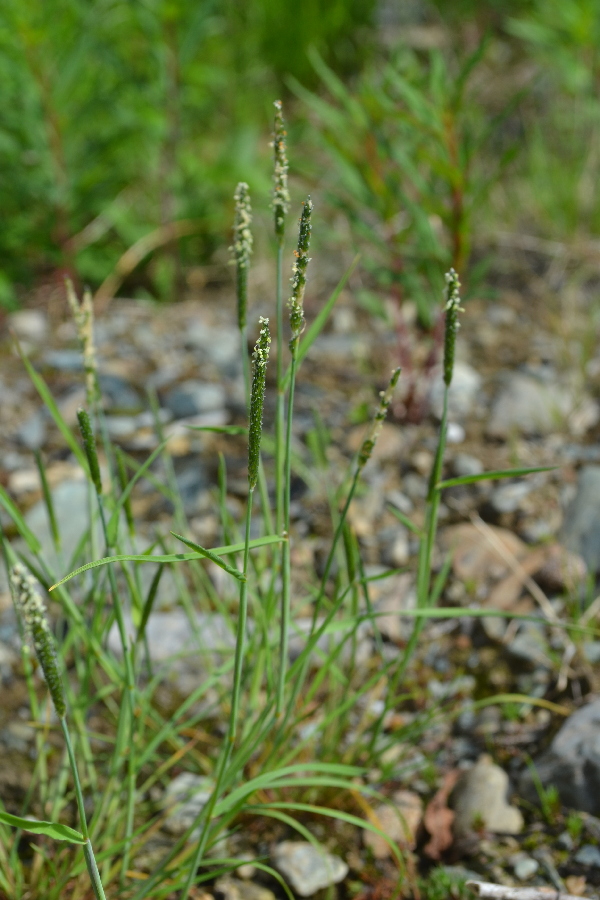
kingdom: Plantae
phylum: Tracheophyta
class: Liliopsida
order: Poales
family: Poaceae
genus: Alopecurus
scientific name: Alopecurus aequalis
